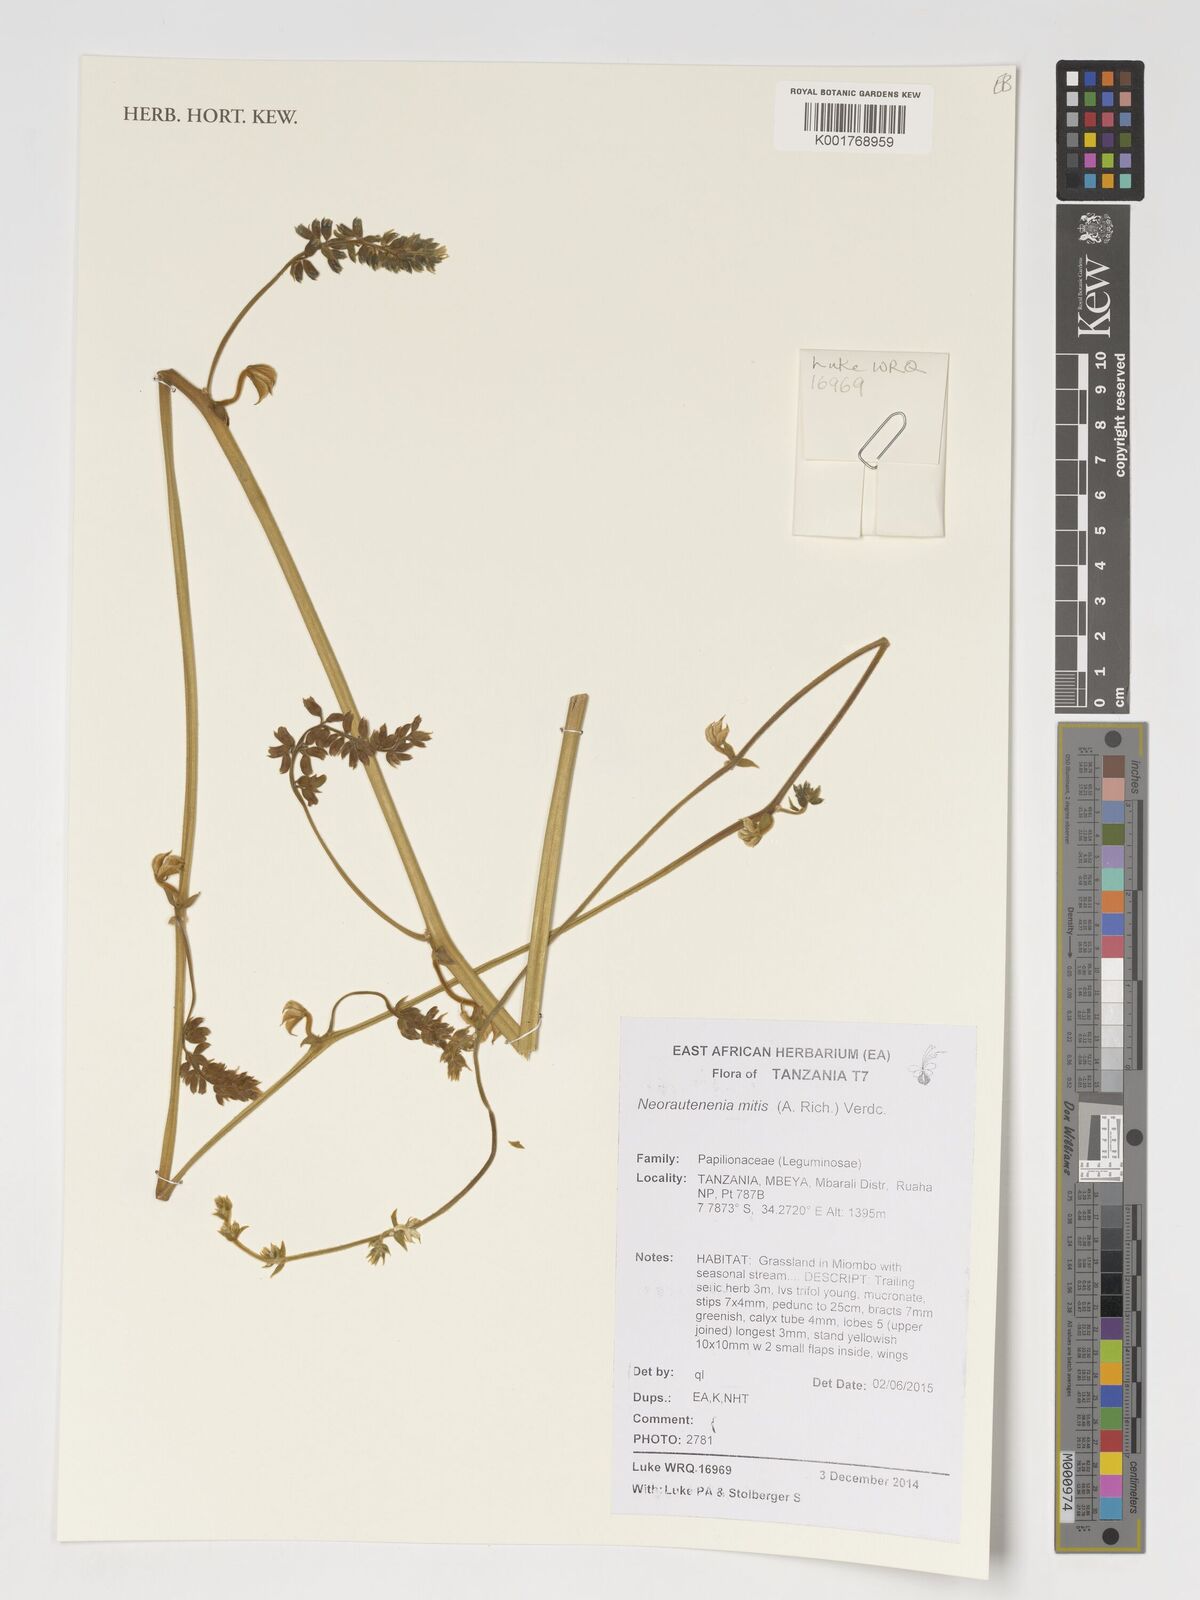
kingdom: Plantae
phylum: Tracheophyta
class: Magnoliopsida
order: Fabales
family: Fabaceae
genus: Neorautanenia
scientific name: Neorautanenia mitis
